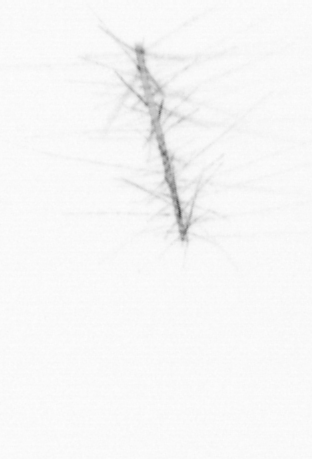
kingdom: Chromista
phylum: Ochrophyta
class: Bacillariophyceae
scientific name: Bacillariophyceae
